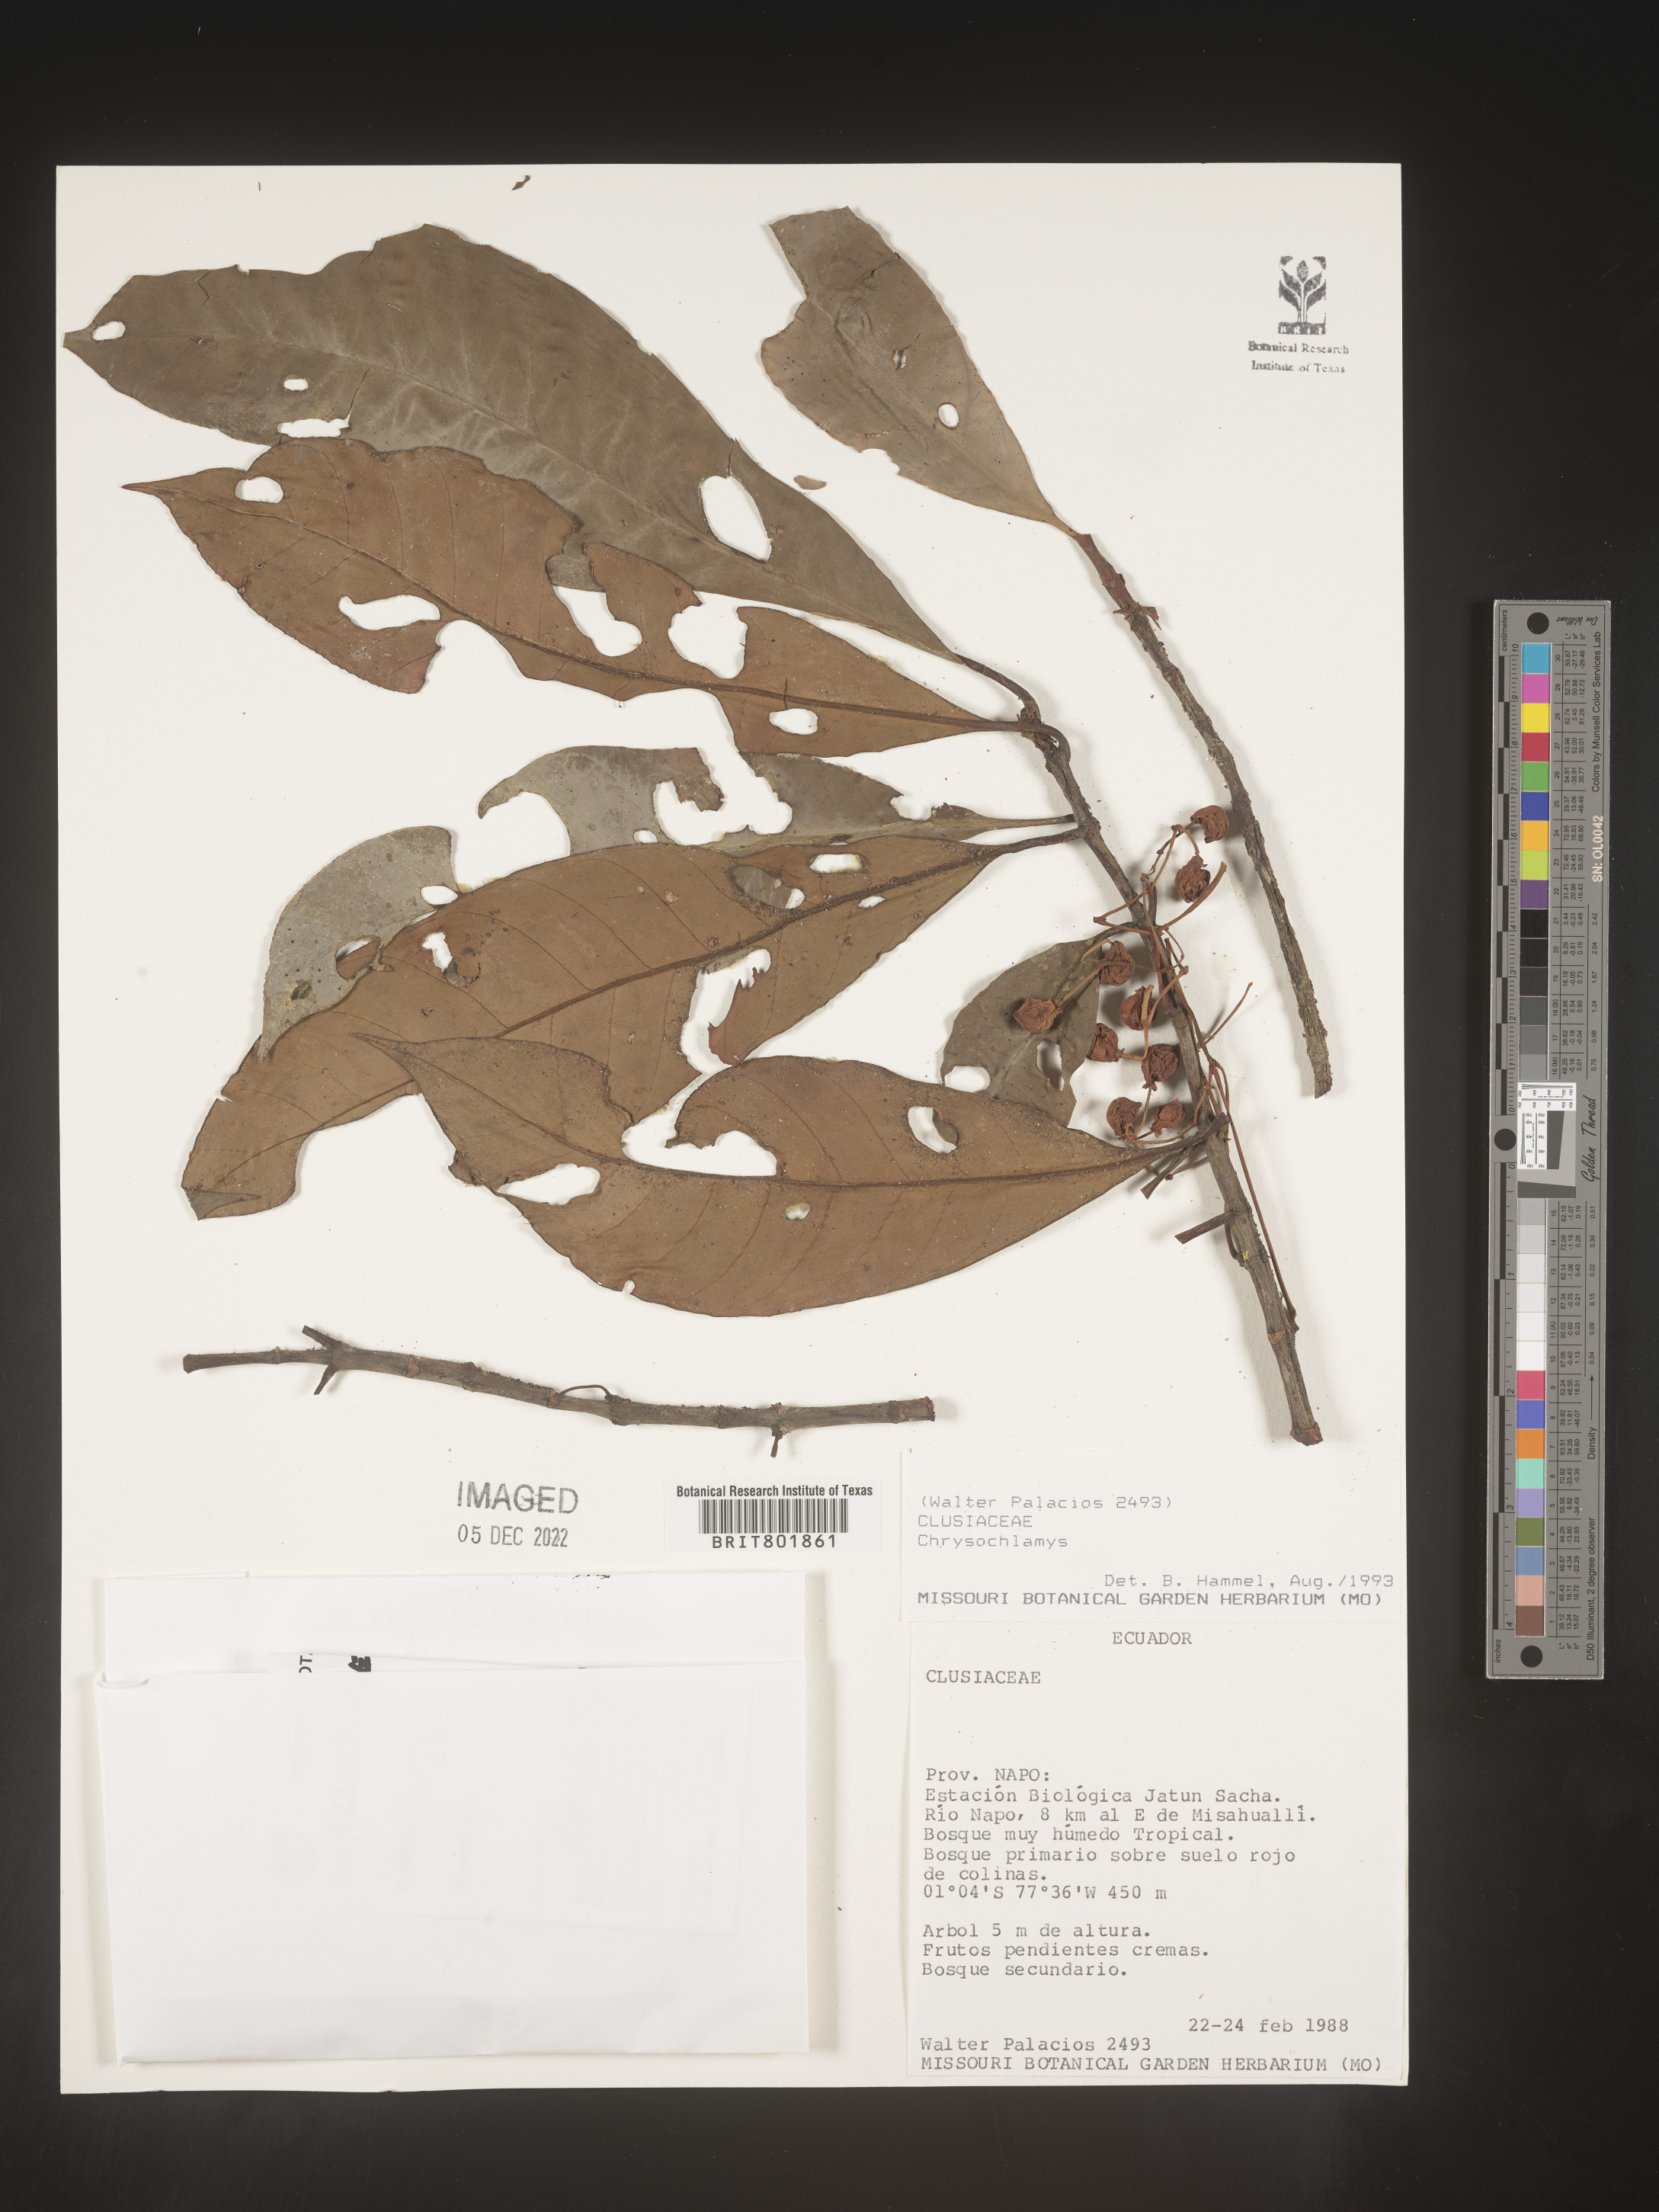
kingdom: Plantae
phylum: Tracheophyta
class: Magnoliopsida
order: Malpighiales
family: Clusiaceae
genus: Chrysochlamys
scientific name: Chrysochlamys
